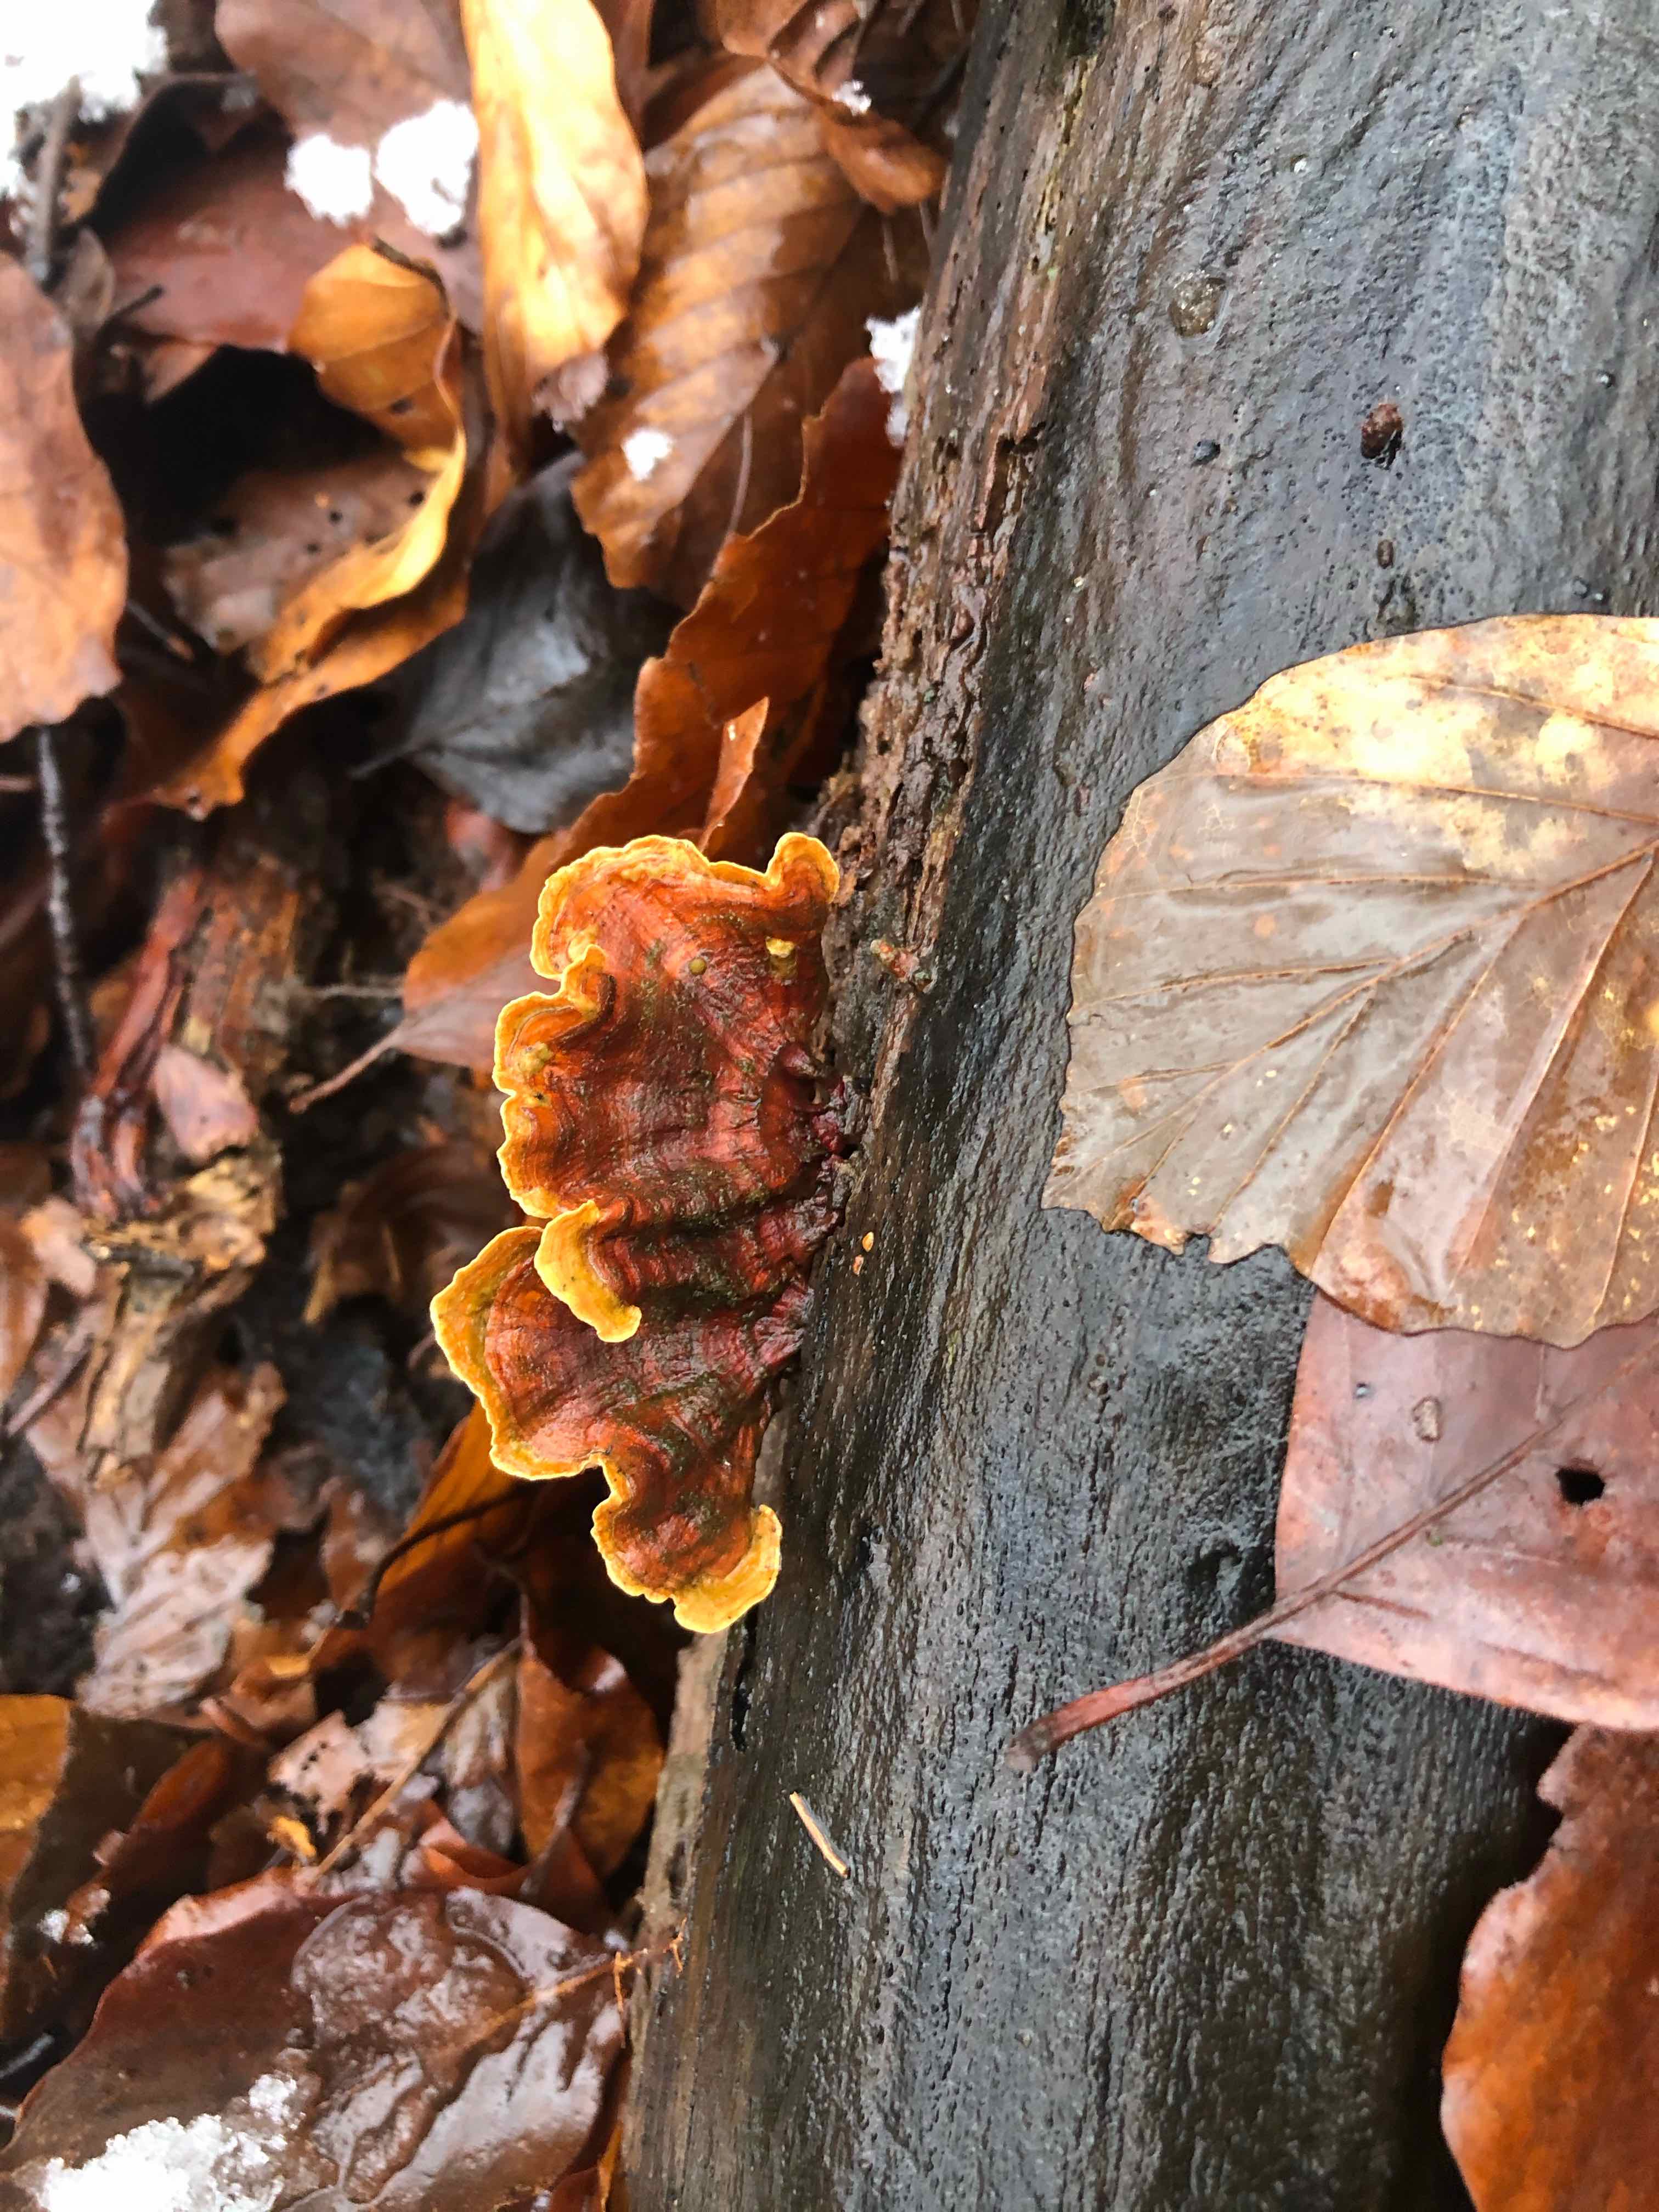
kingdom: Fungi
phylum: Basidiomycota
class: Agaricomycetes
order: Russulales
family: Stereaceae
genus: Stereum
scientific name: Stereum subtomentosum
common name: smuk lædersvamp
